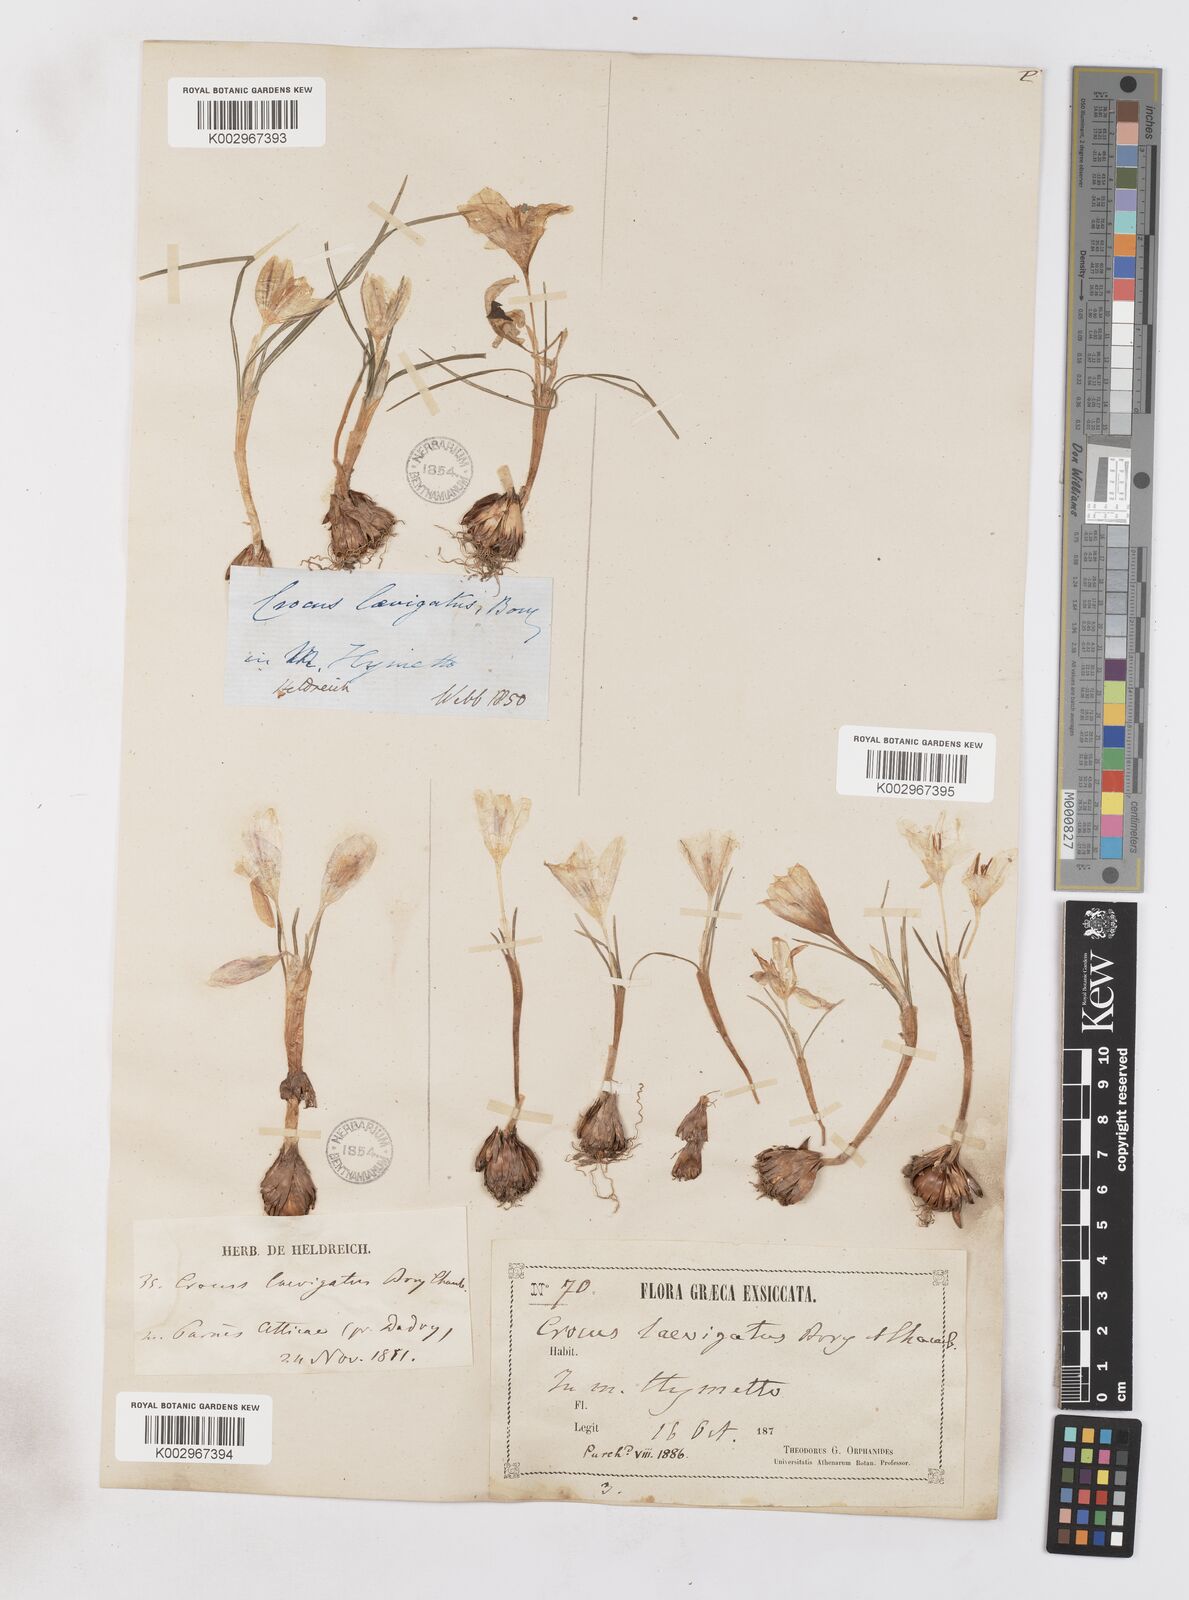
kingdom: Plantae
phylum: Tracheophyta
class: Liliopsida
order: Asparagales
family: Iridaceae
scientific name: Iridaceae
